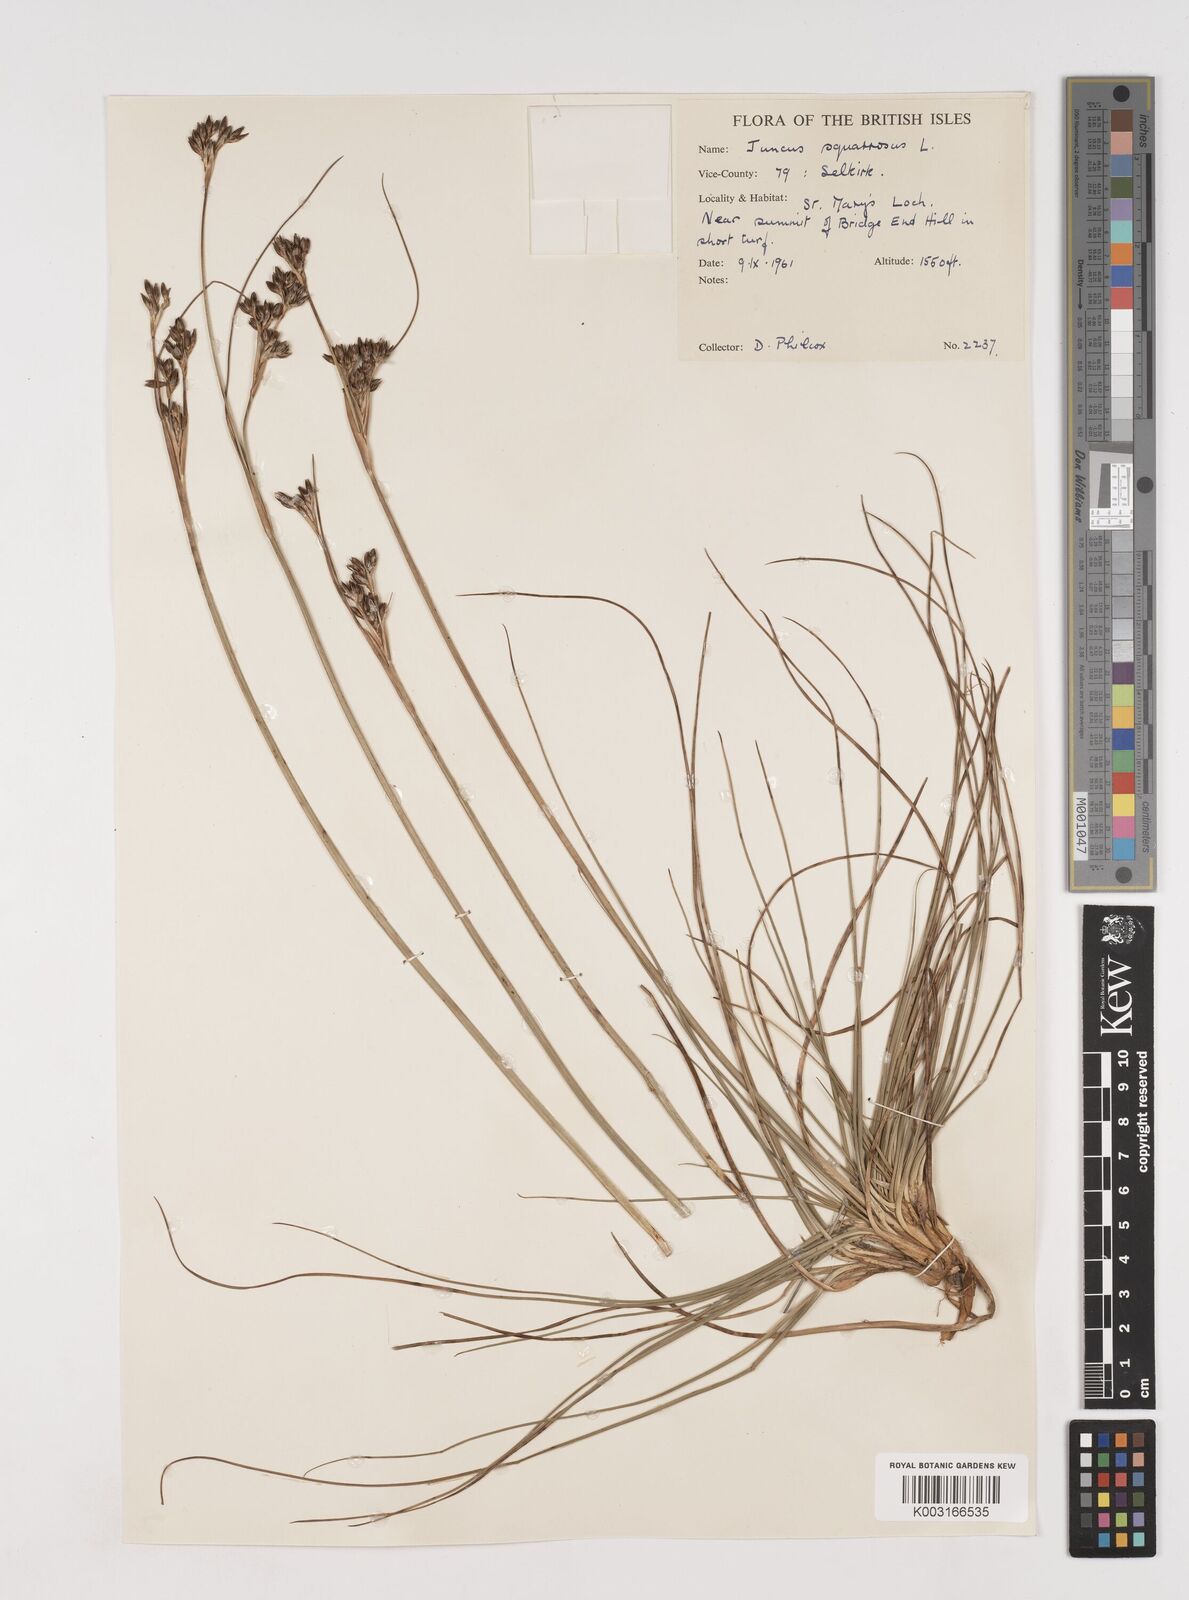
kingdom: Plantae
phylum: Tracheophyta
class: Liliopsida
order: Poales
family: Juncaceae
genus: Juncus
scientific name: Juncus squarrosus
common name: Heath rush
